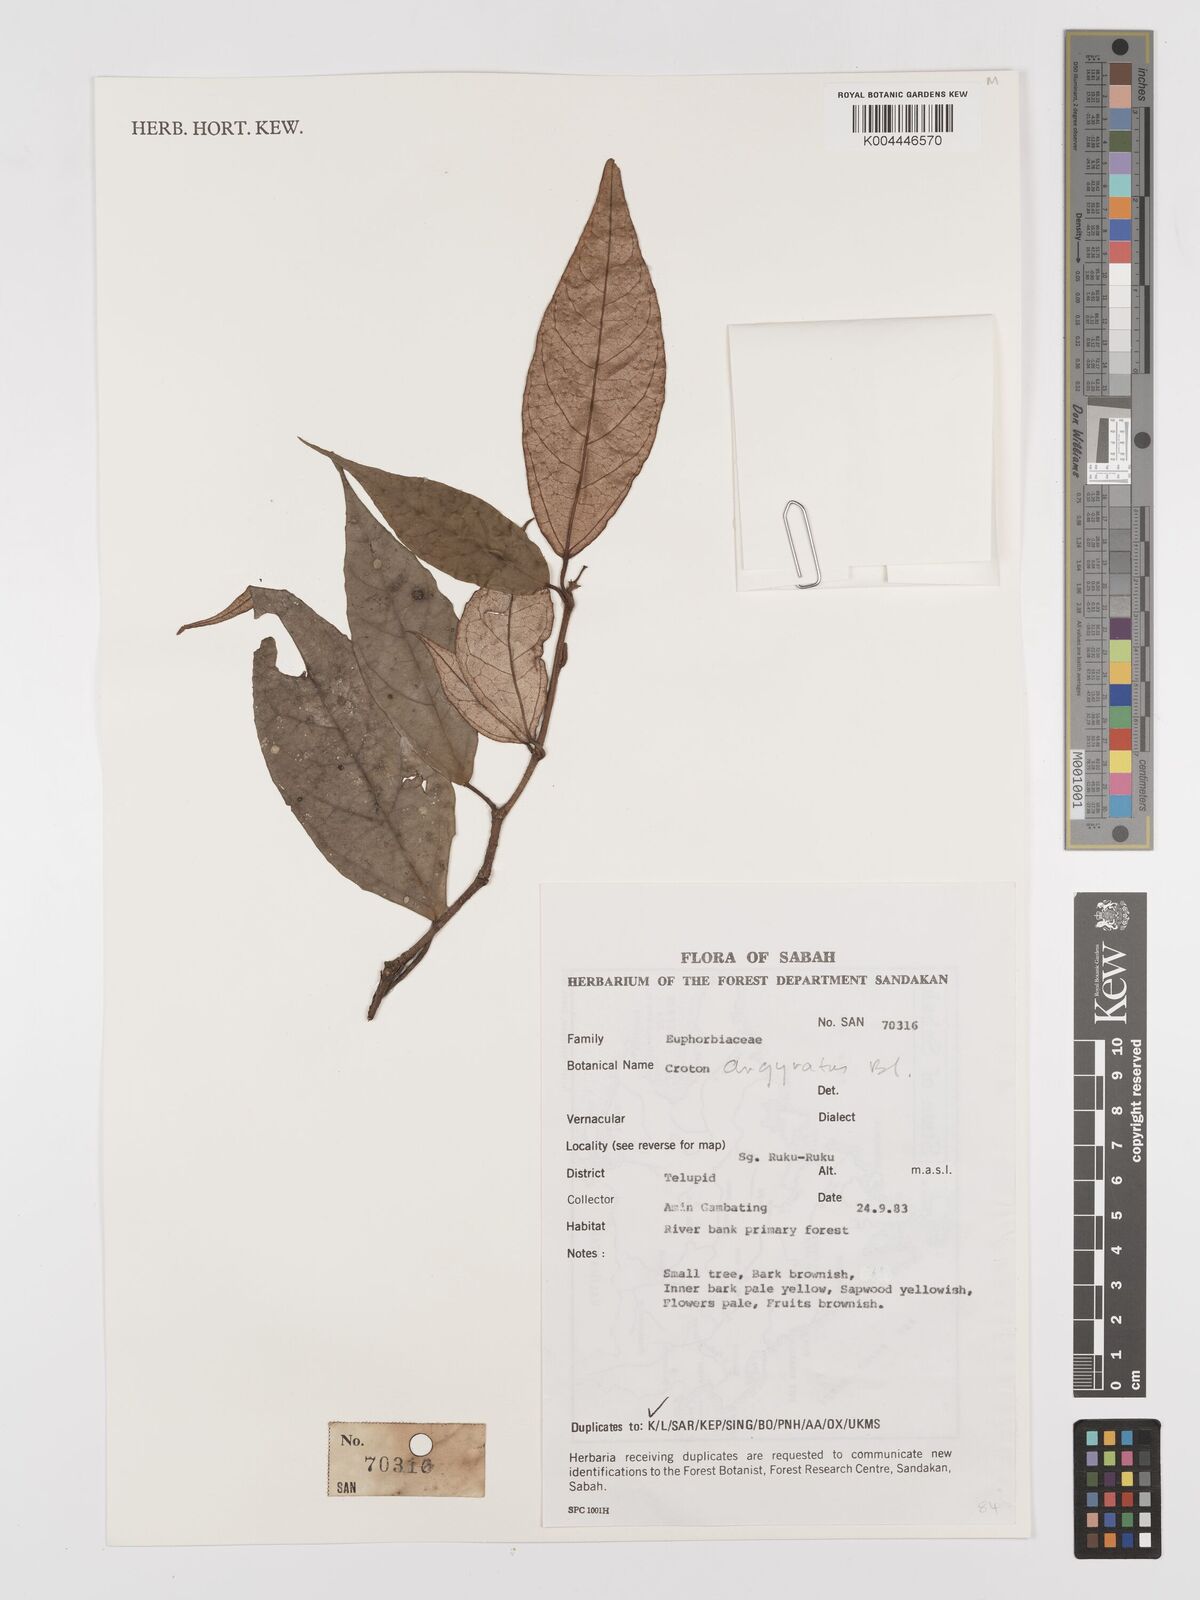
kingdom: Plantae
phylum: Tracheophyta
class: Magnoliopsida
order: Malpighiales
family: Euphorbiaceae
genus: Croton
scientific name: Croton argyratus
